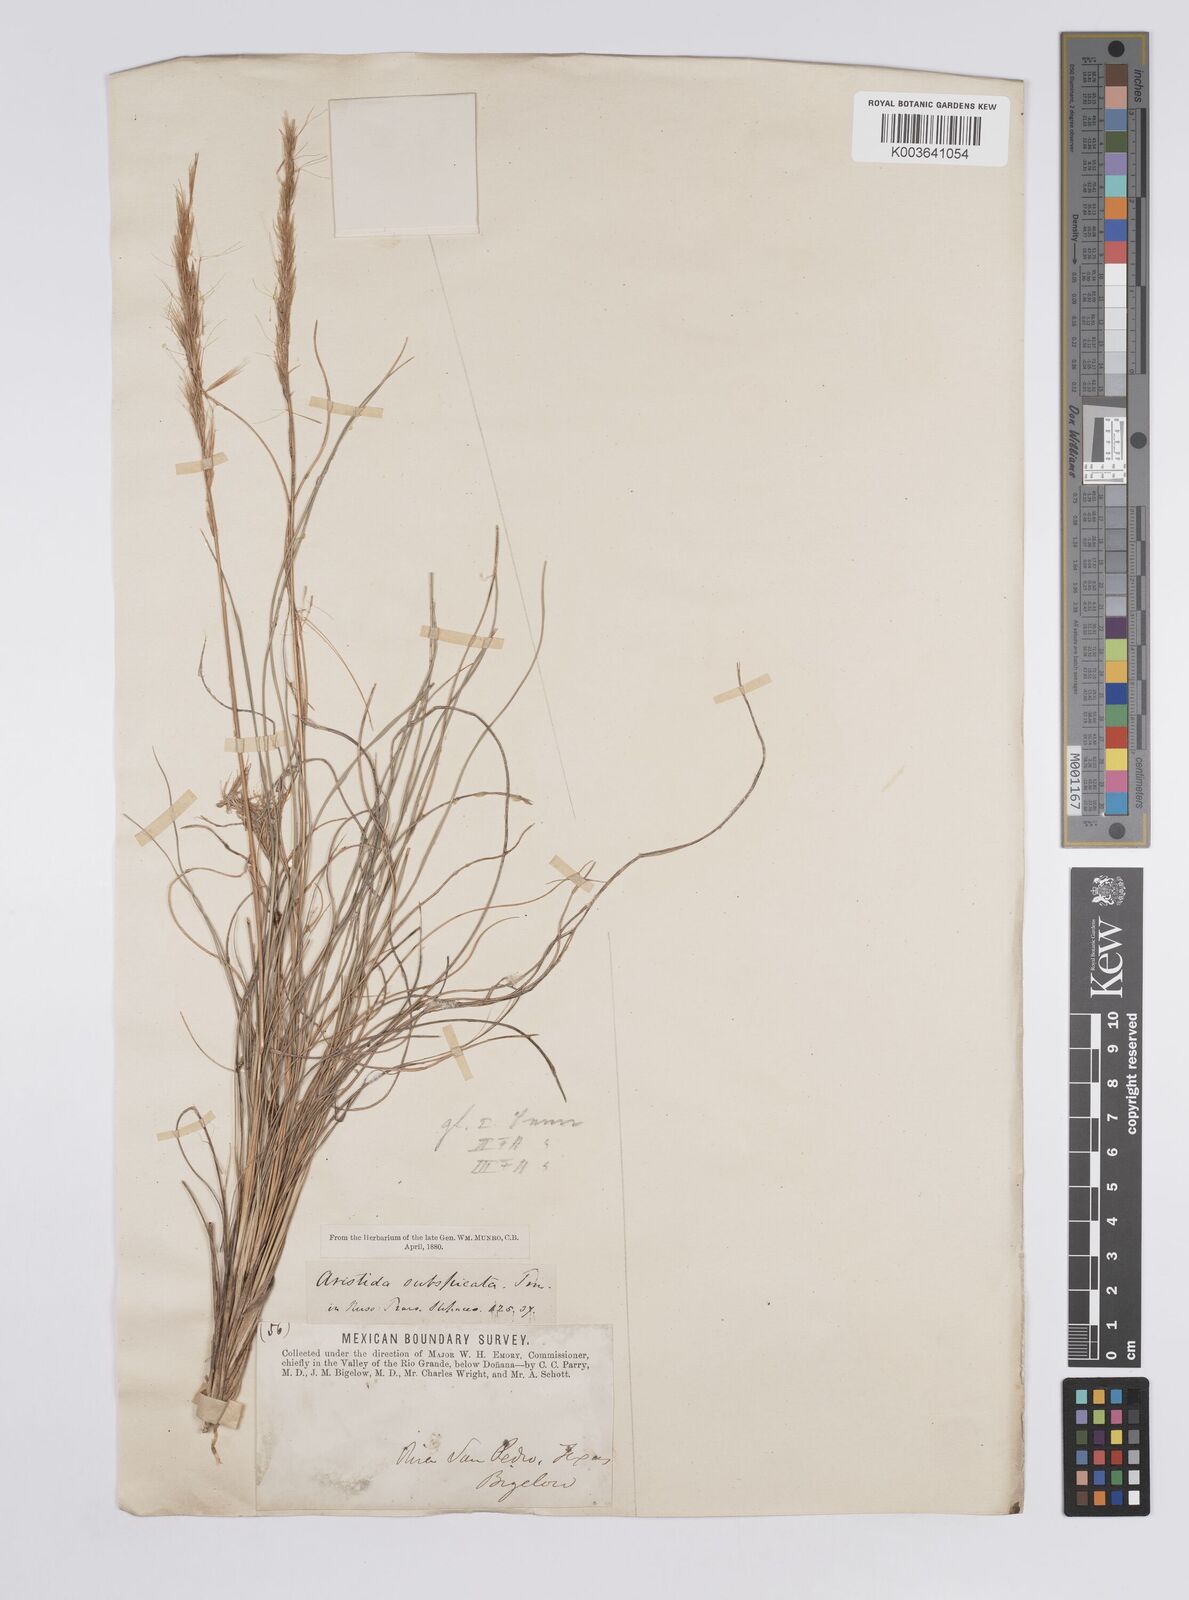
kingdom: Plantae
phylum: Tracheophyta
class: Liliopsida
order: Poales
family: Poaceae
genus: Aristida
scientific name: Aristida stricta
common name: Pineland three-awn
